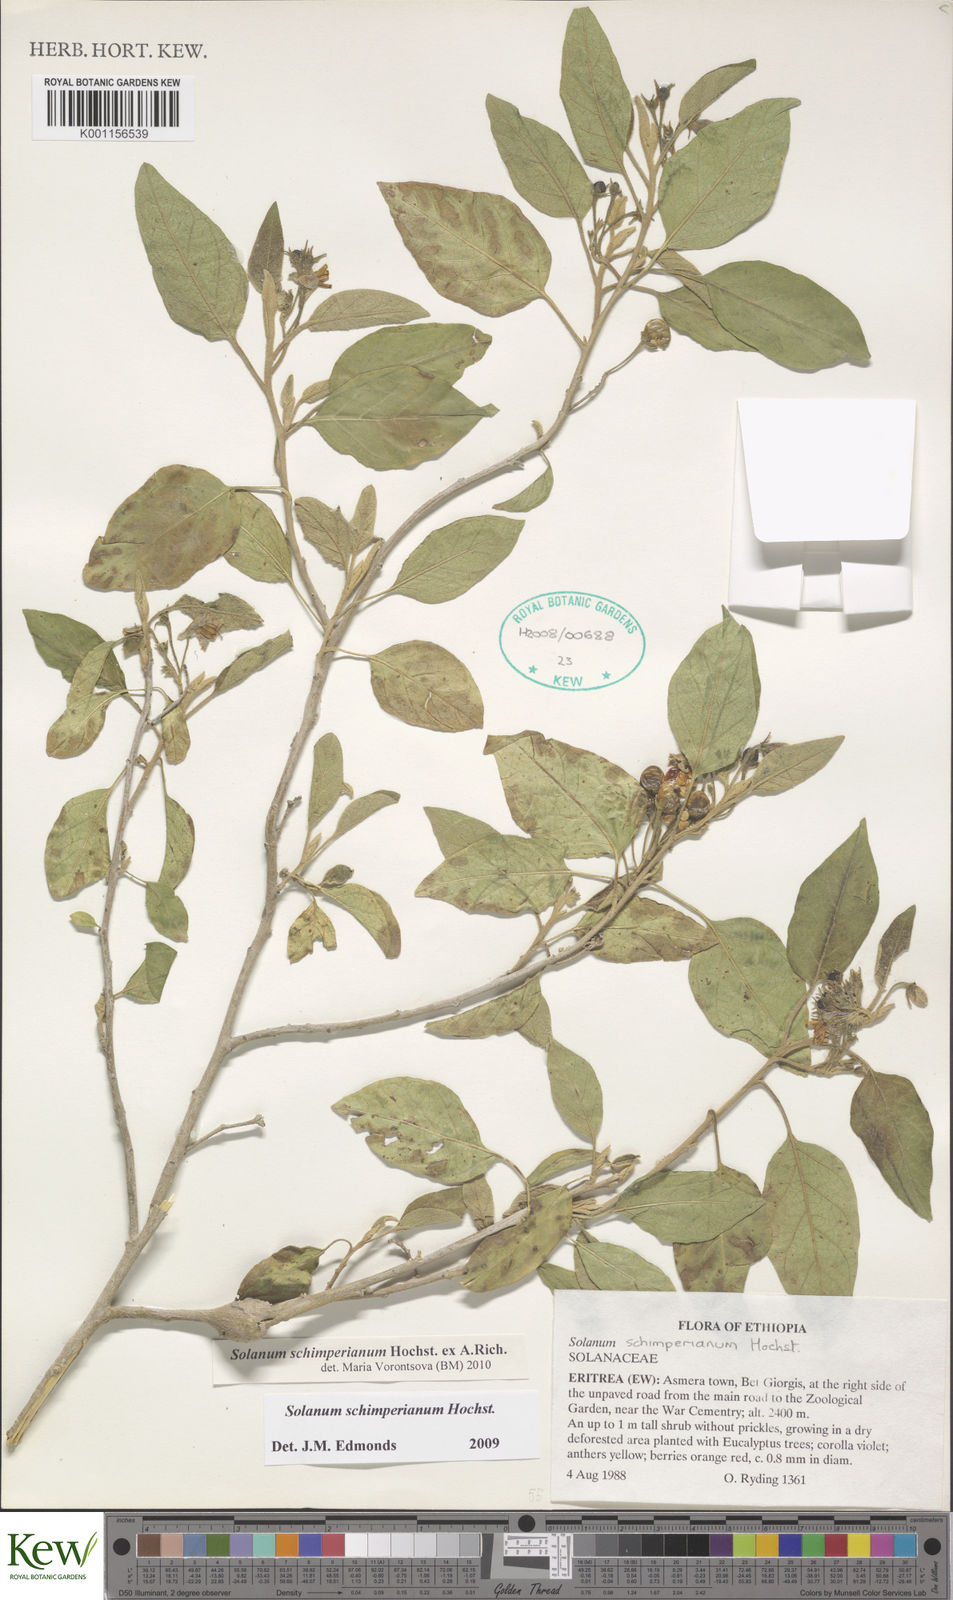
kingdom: Plantae
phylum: Tracheophyta
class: Magnoliopsida
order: Solanales
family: Solanaceae
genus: Solanum
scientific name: Solanum
